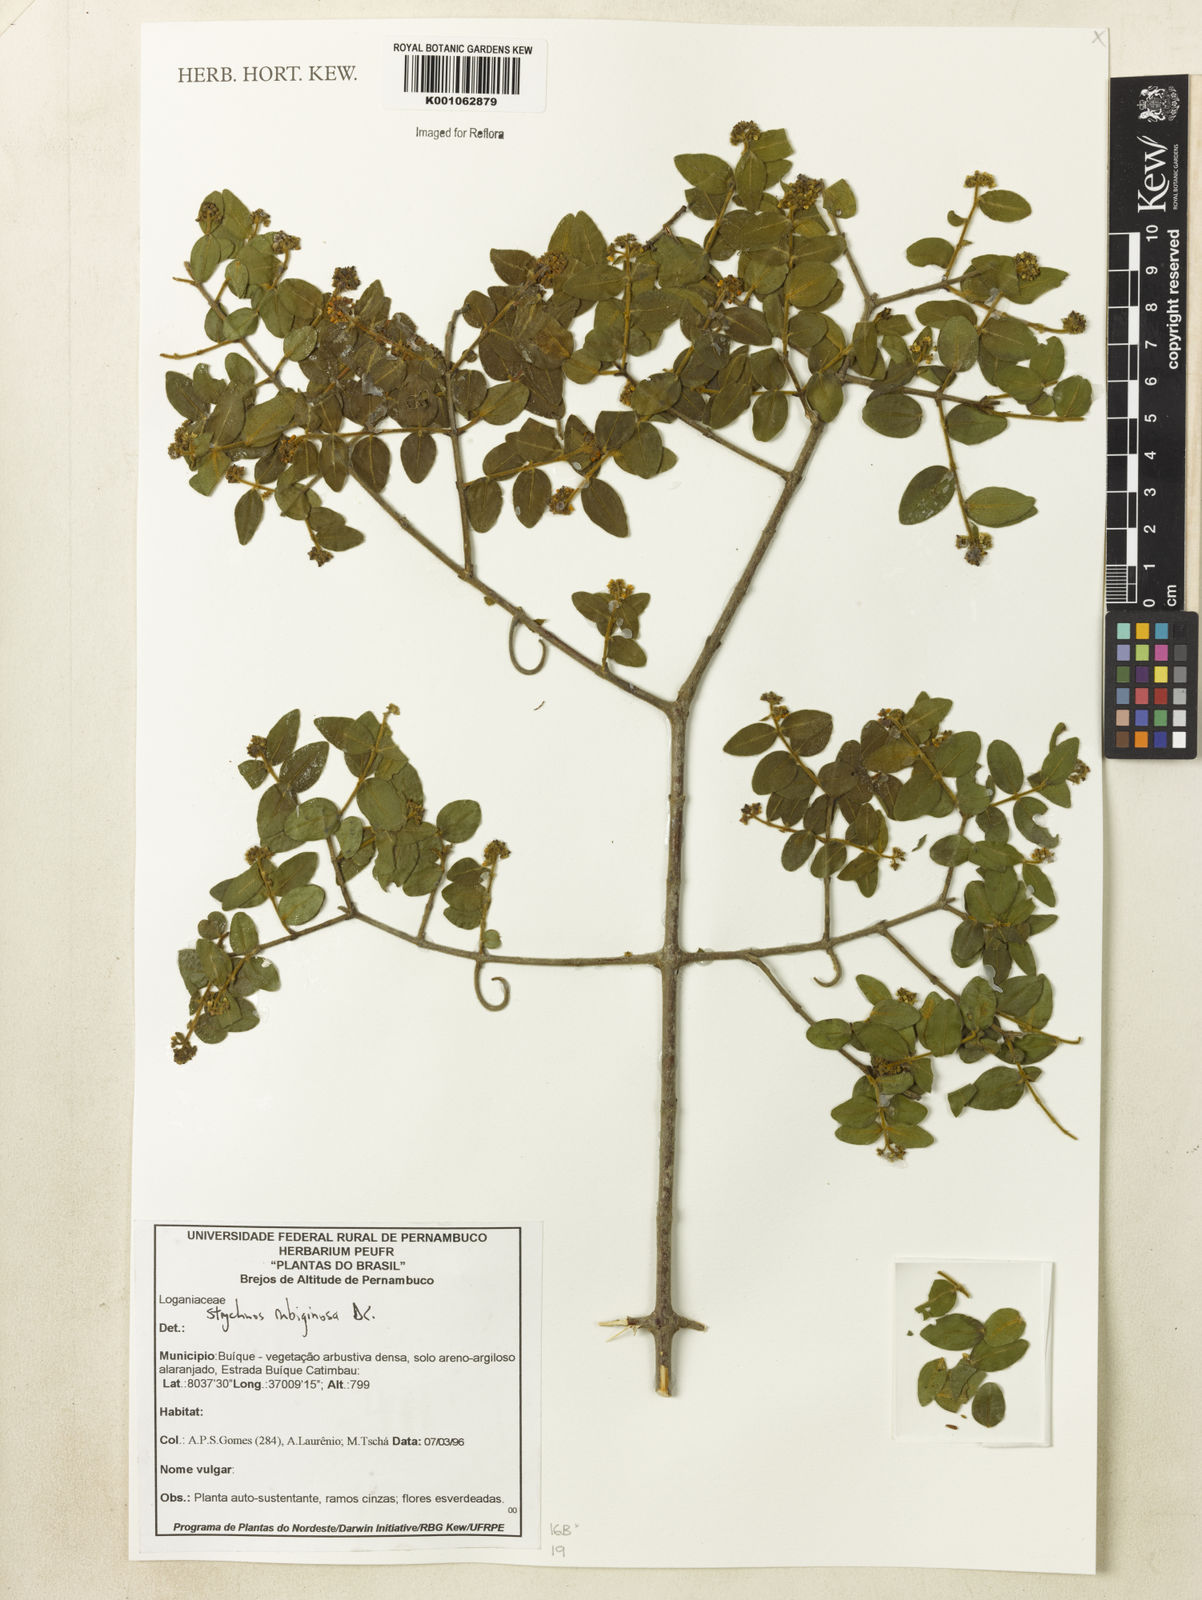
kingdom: Plantae
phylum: Tracheophyta
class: Magnoliopsida
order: Gentianales
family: Loganiaceae
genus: Strychnos
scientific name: Strychnos rubiginosa
